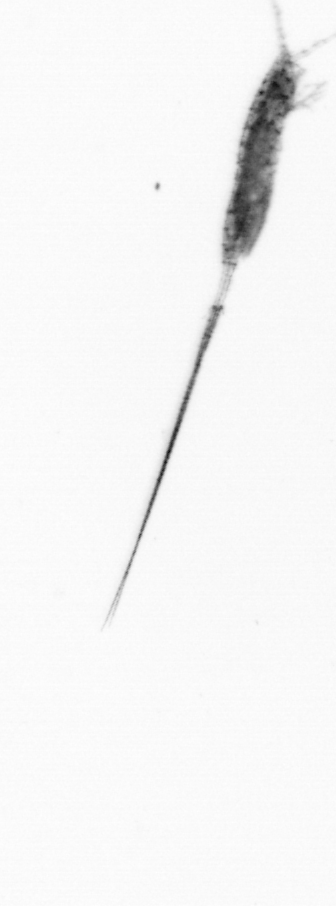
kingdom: Animalia
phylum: Arthropoda
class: Copepoda
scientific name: Copepoda
